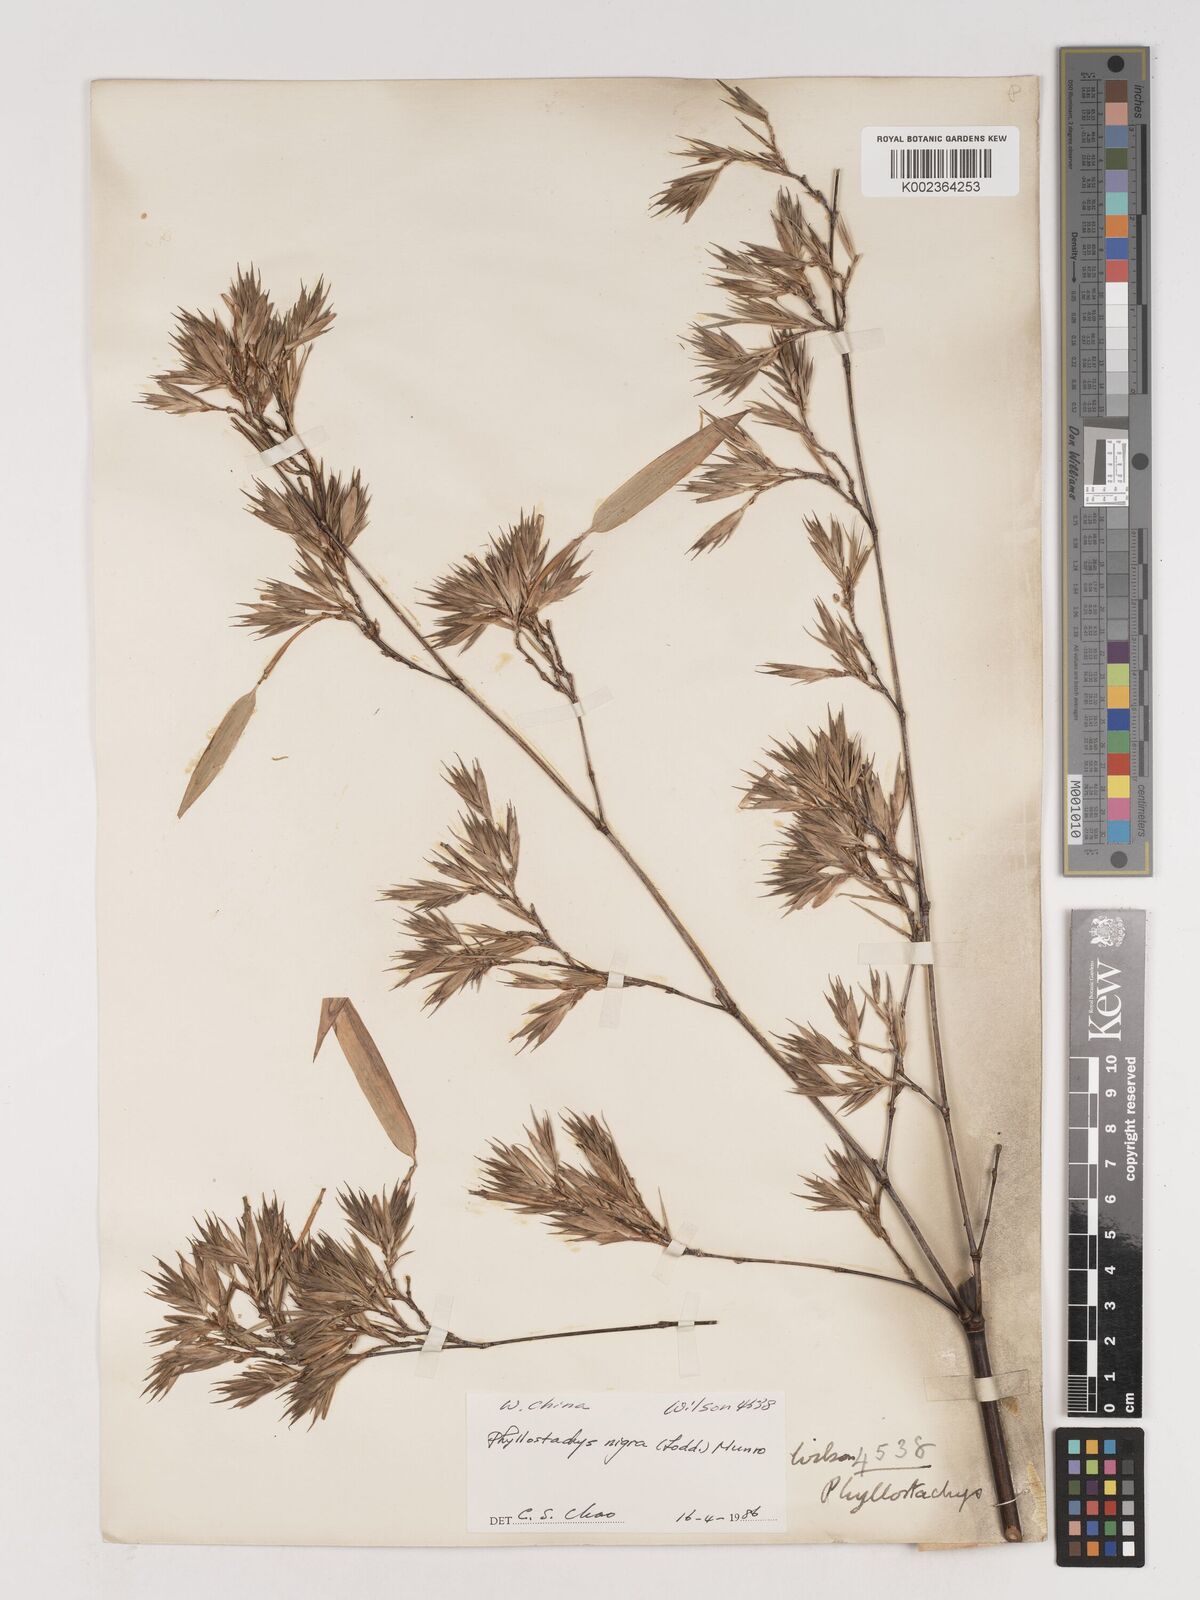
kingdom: Plantae
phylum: Tracheophyta
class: Liliopsida
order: Poales
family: Poaceae
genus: Phyllostachys
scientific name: Phyllostachys nigra
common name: Black bamboo
